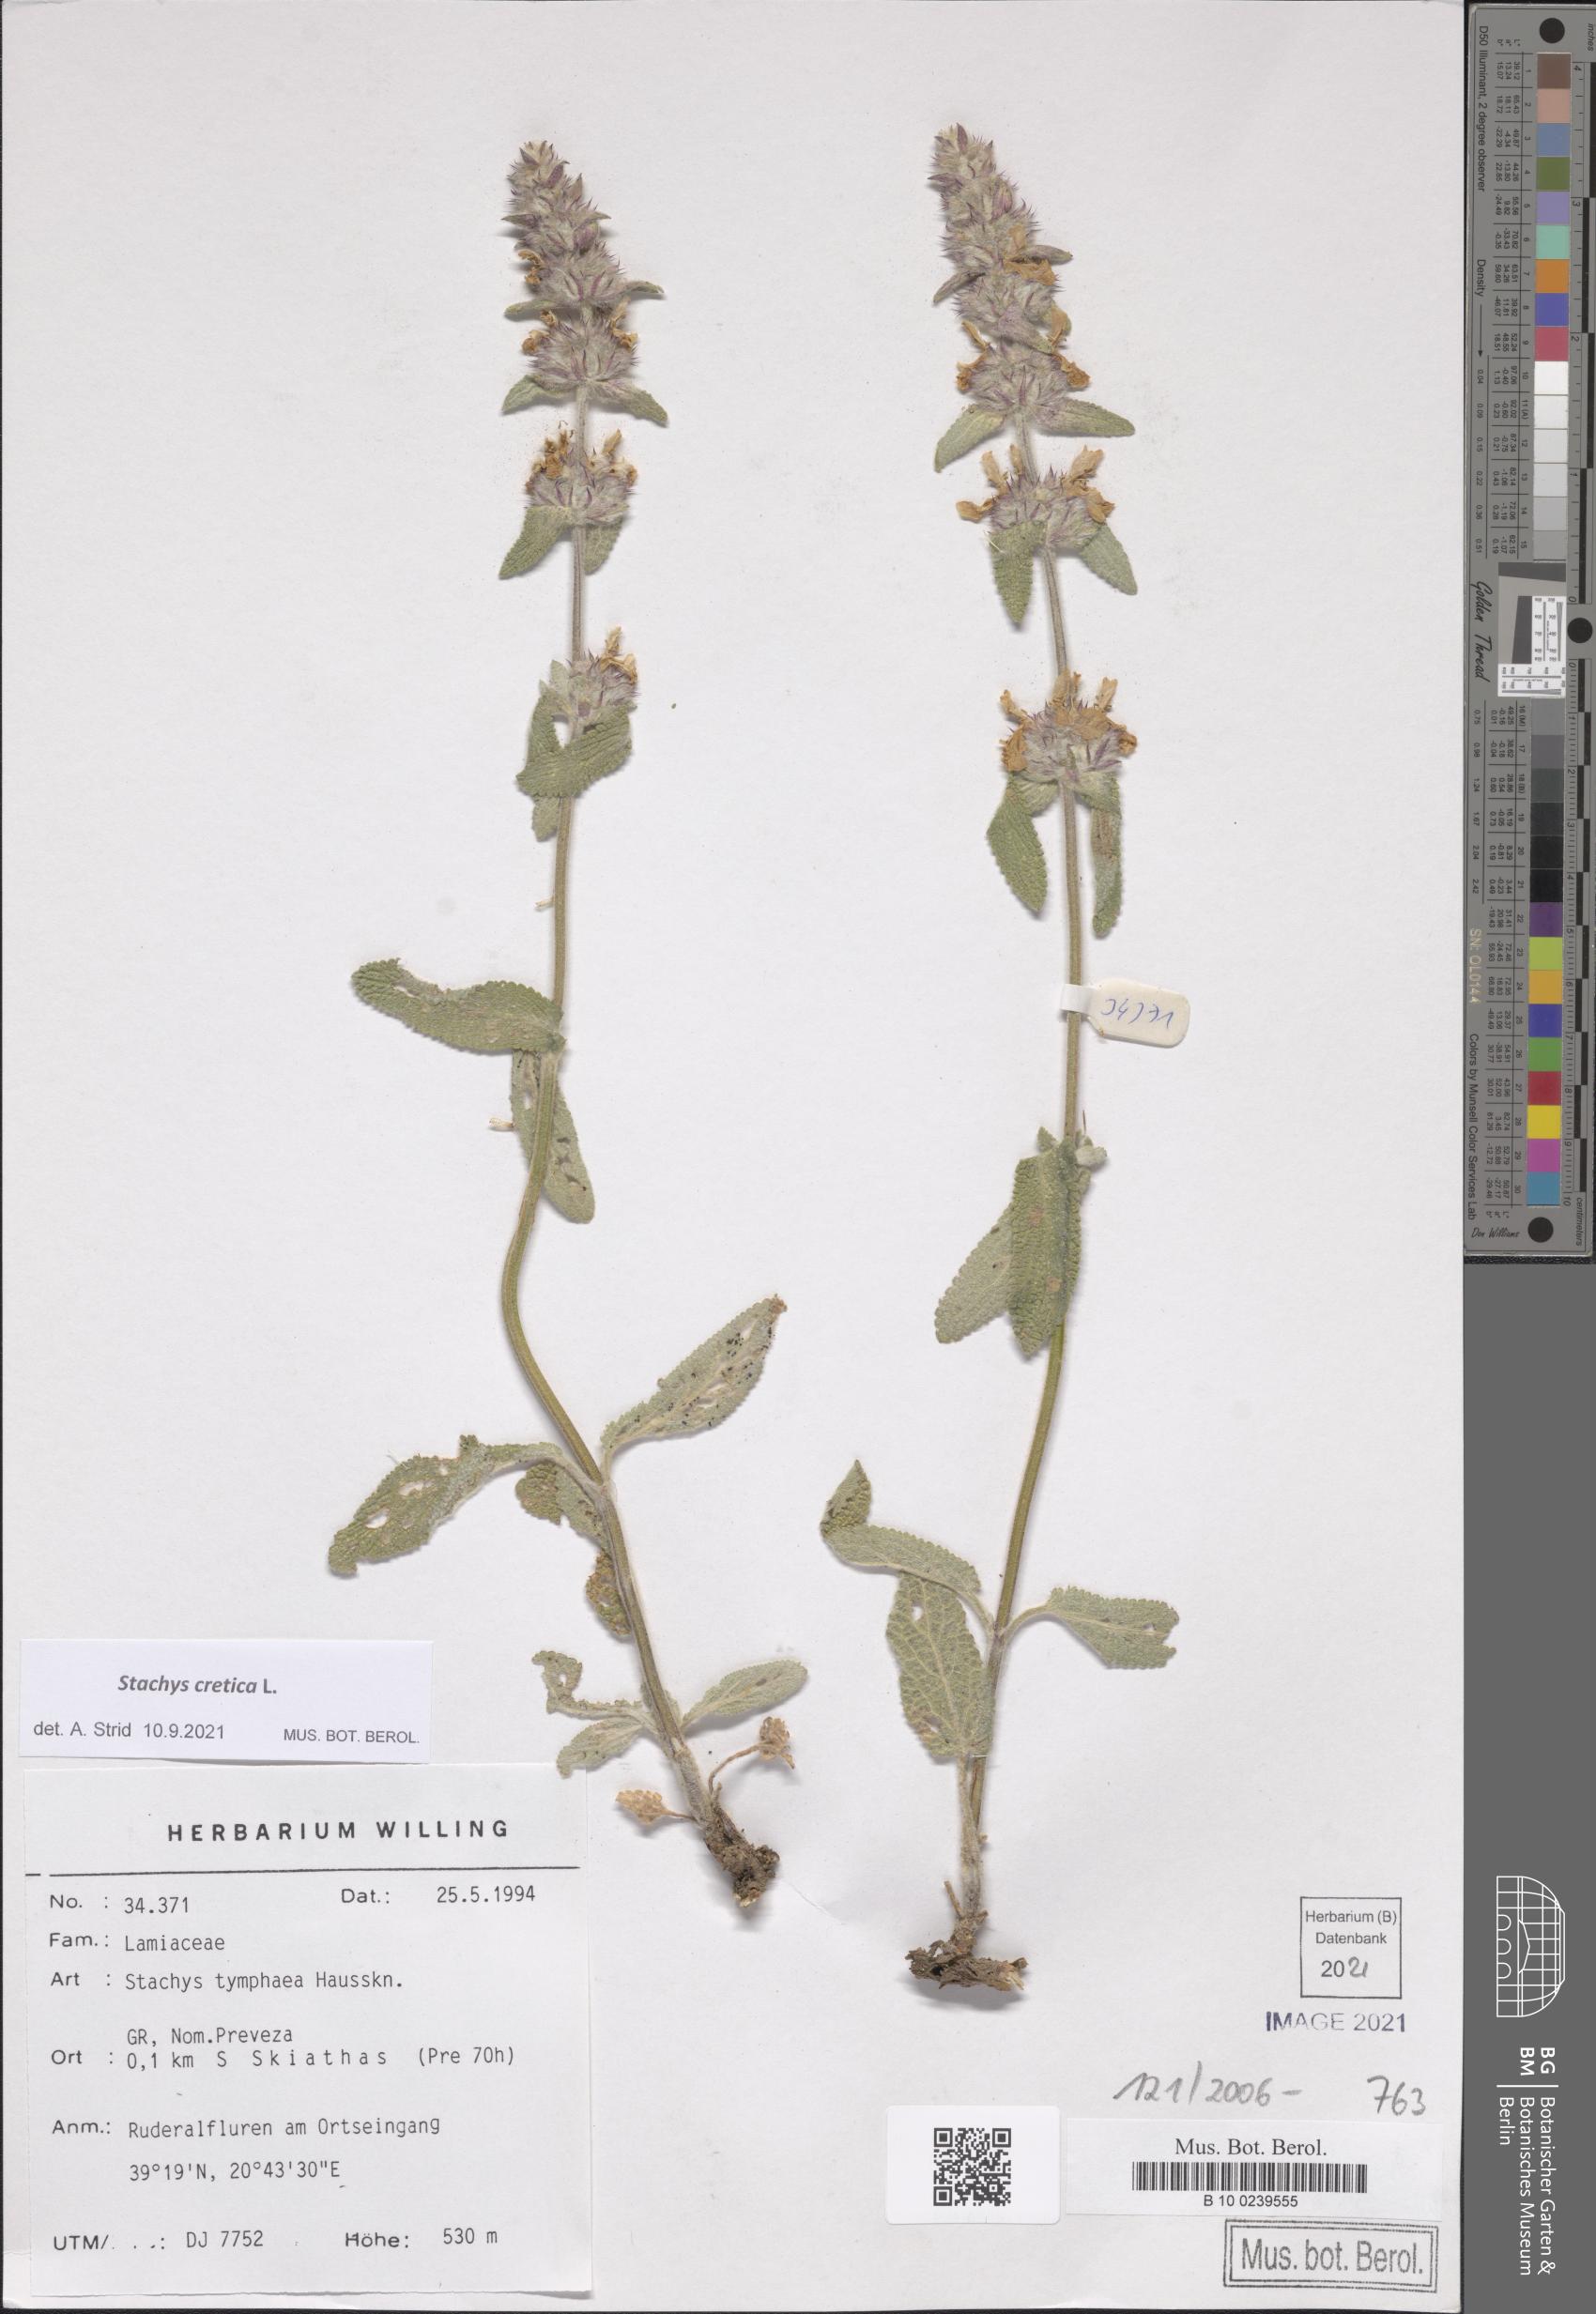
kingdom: Plantae
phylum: Tracheophyta
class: Magnoliopsida
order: Lamiales
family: Lamiaceae
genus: Stachys
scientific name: Stachys cretica
